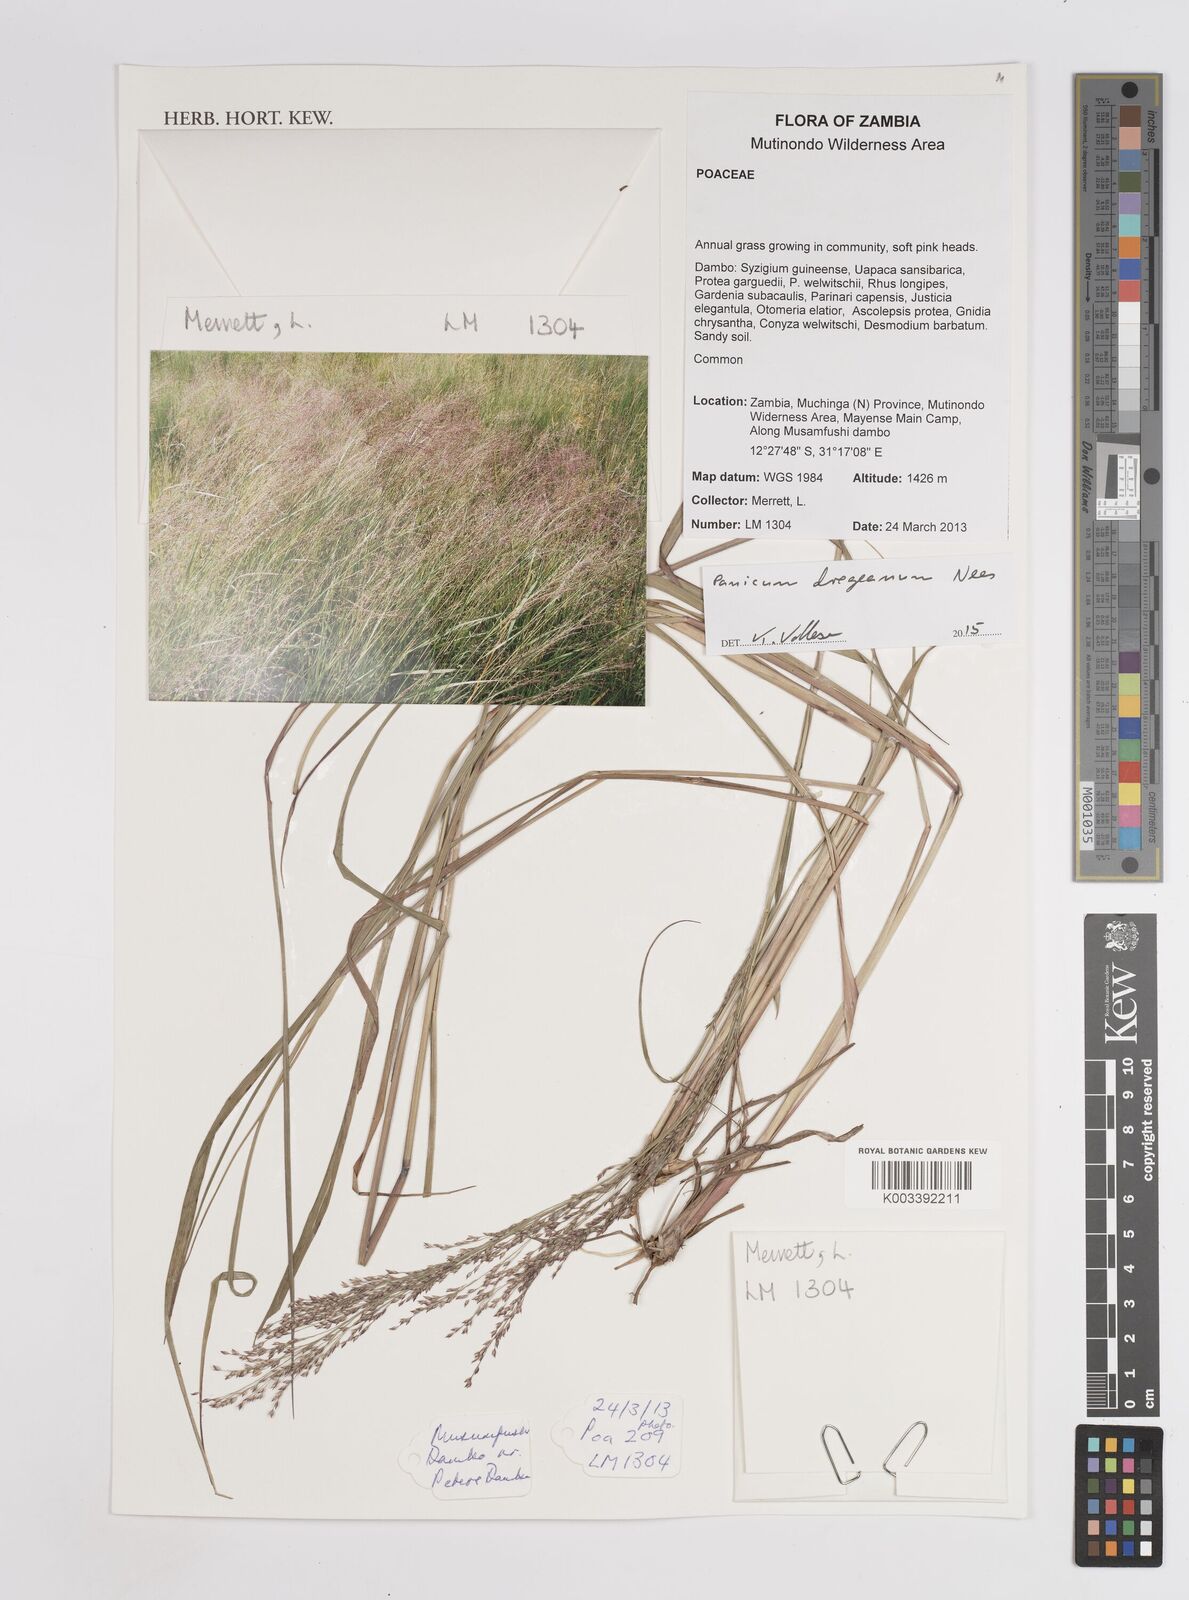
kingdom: Plantae
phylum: Tracheophyta
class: Liliopsida
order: Poales
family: Poaceae
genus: Panicum
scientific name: Panicum dregeanum
